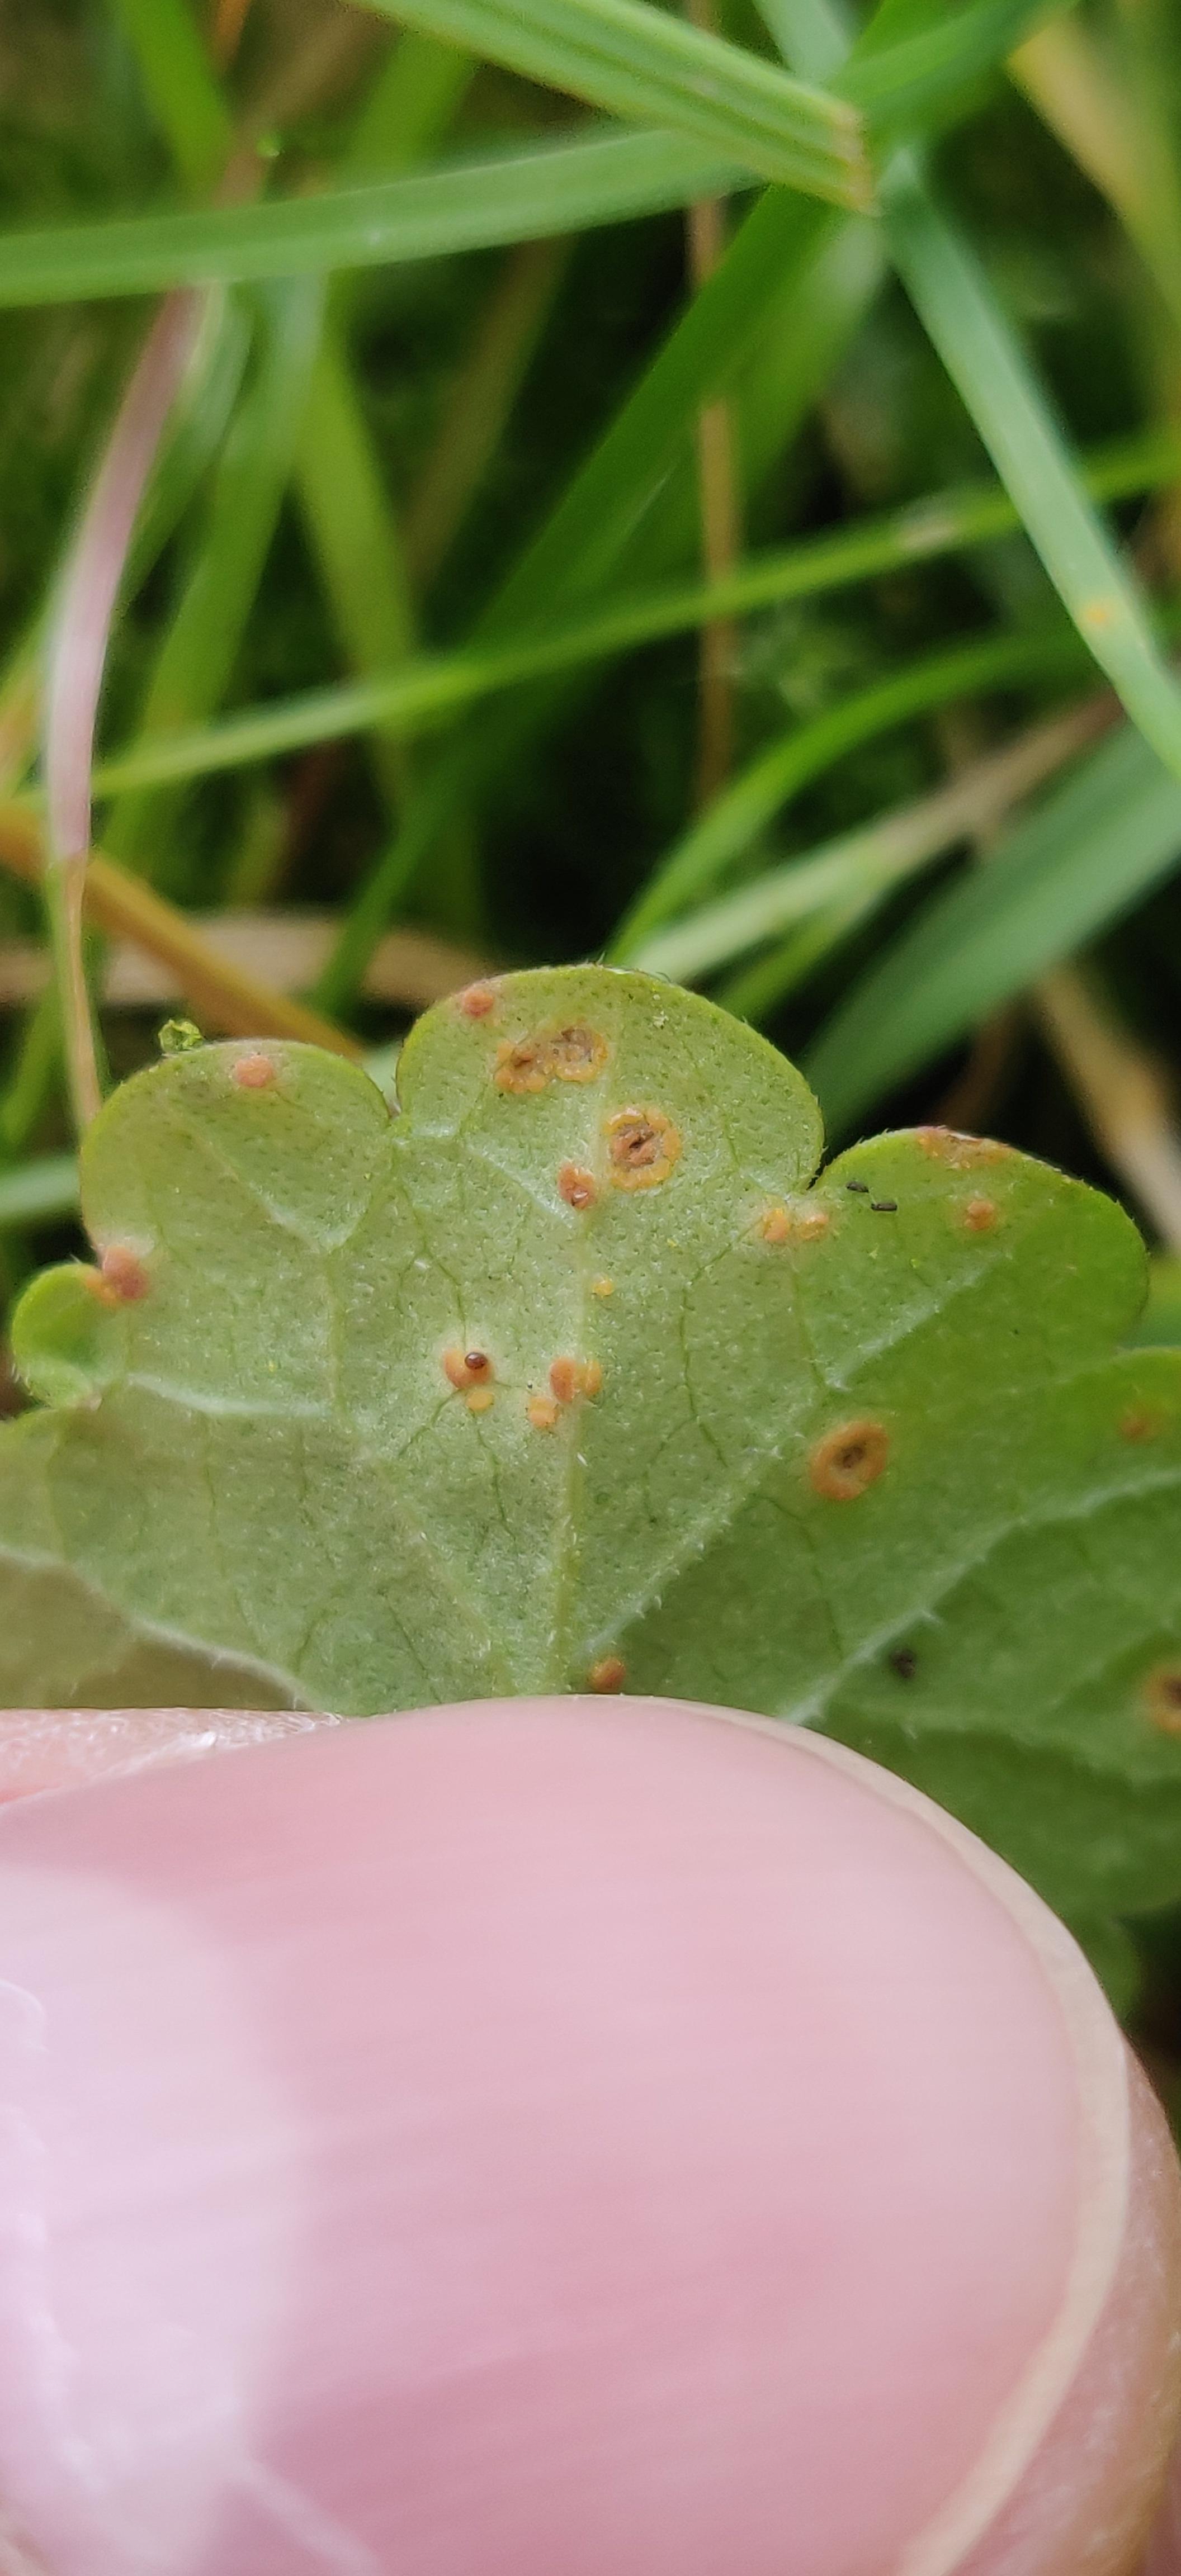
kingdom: Fungi
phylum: Basidiomycota
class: Pucciniomycetes
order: Pucciniales
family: Pucciniaceae
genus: Puccinia
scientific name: Puccinia glechomatis
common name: Ground ivy rust
